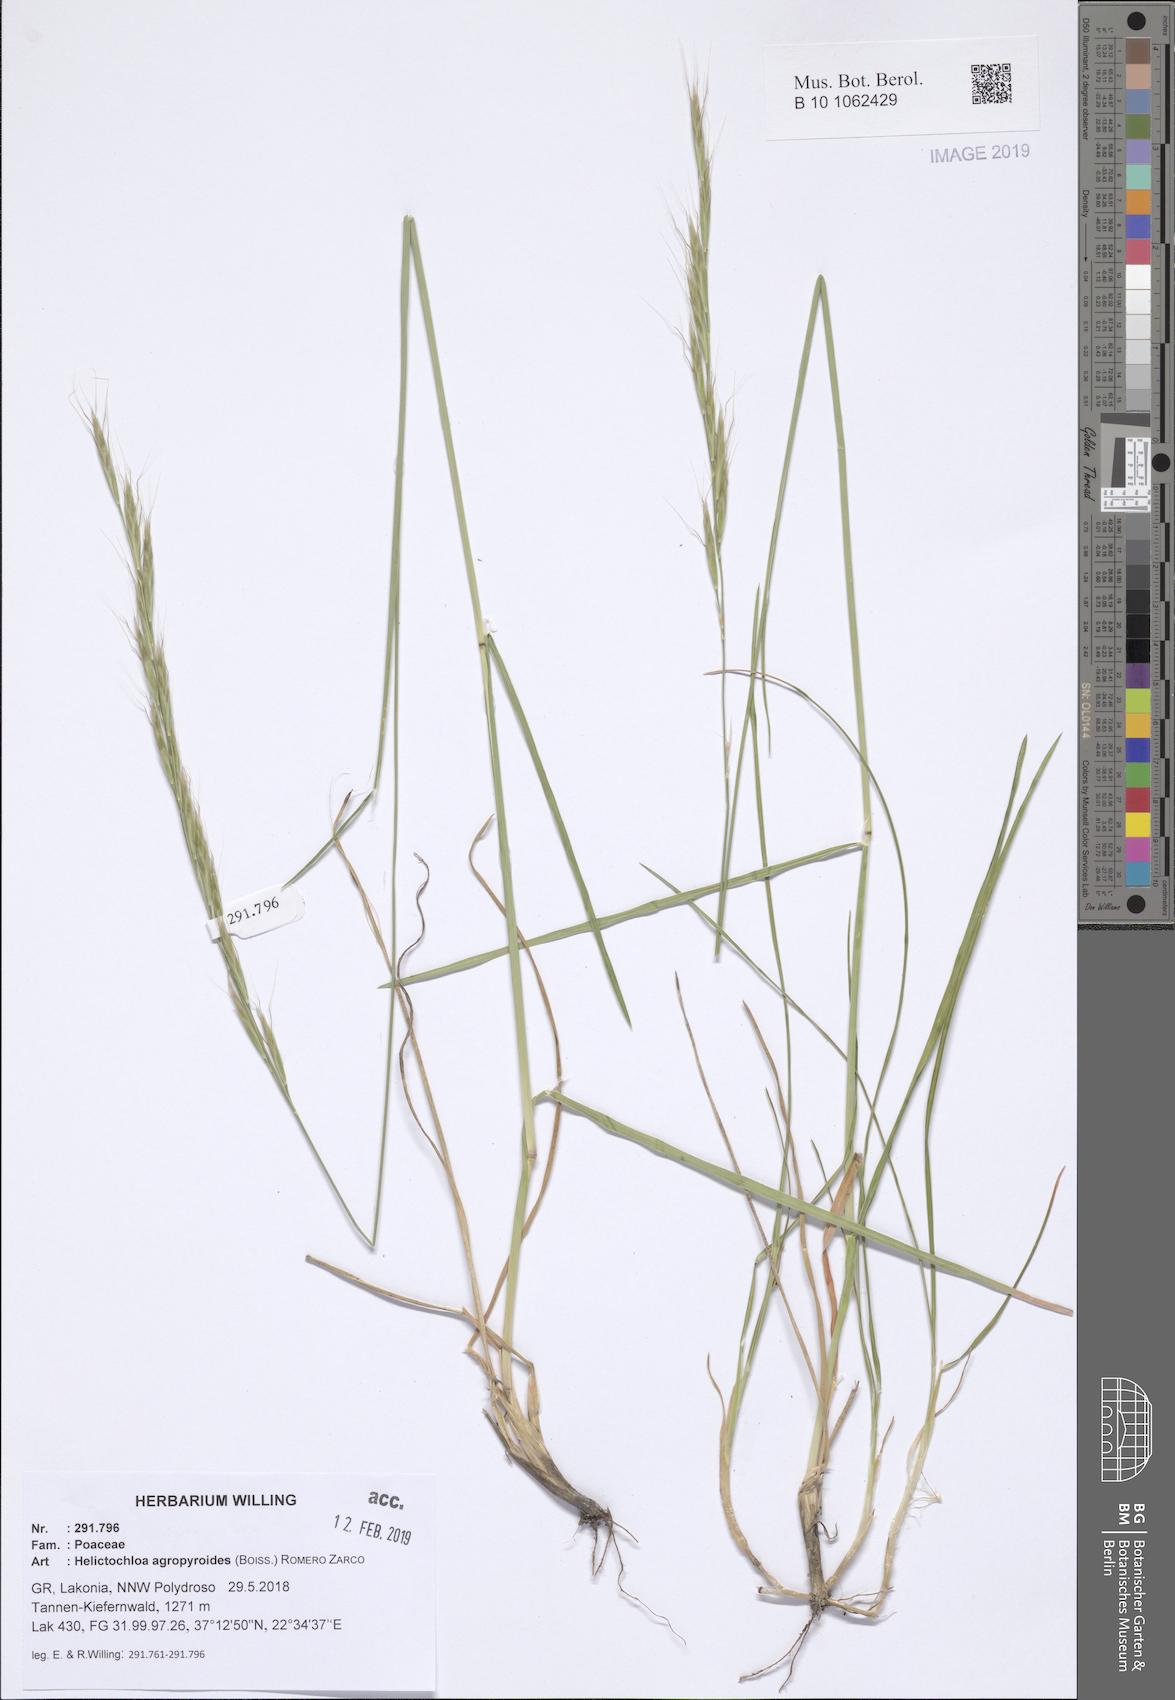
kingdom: Plantae
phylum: Tracheophyta
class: Liliopsida
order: Poales
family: Poaceae
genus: Helictochloa
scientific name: Helictochloa agropyroides
